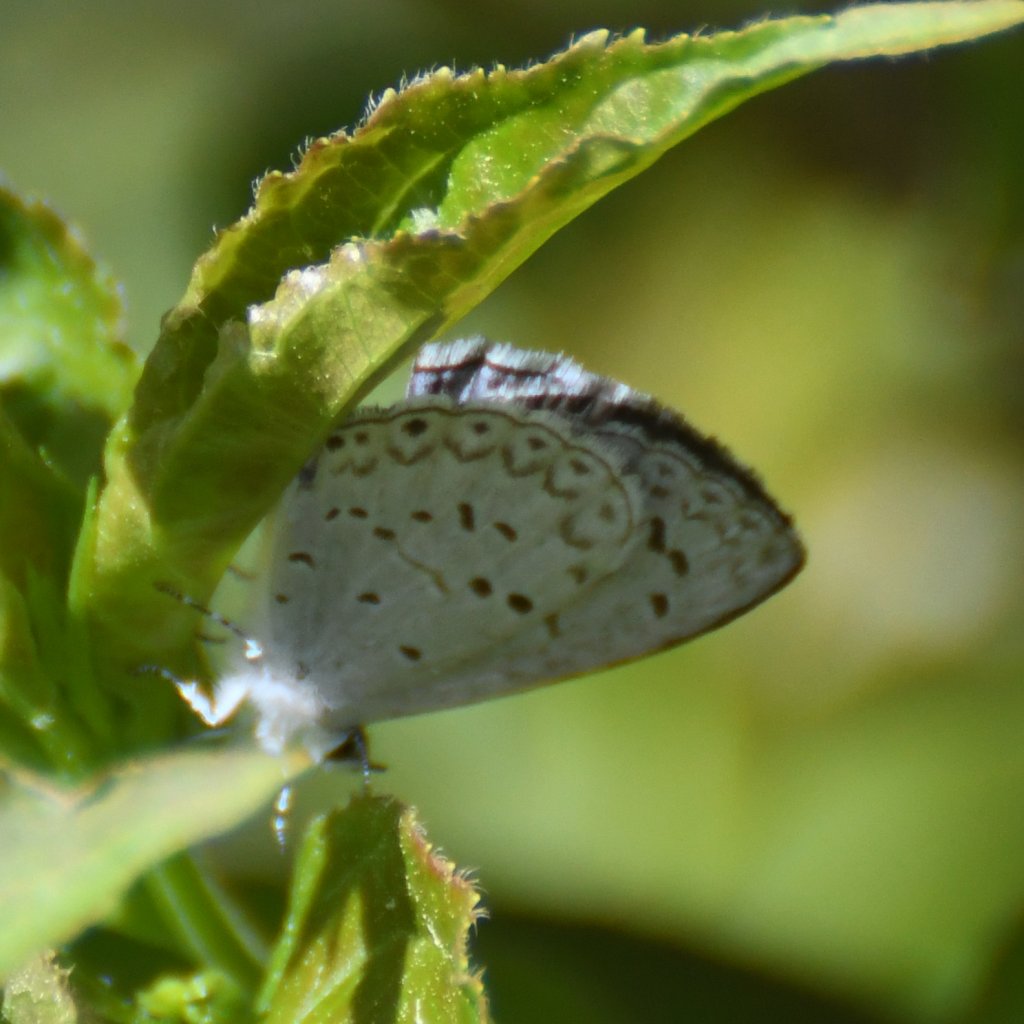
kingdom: Animalia
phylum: Arthropoda
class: Insecta
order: Lepidoptera
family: Lycaenidae
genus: Celastrina
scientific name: Celastrina lucia
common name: Northern Spring Azure
